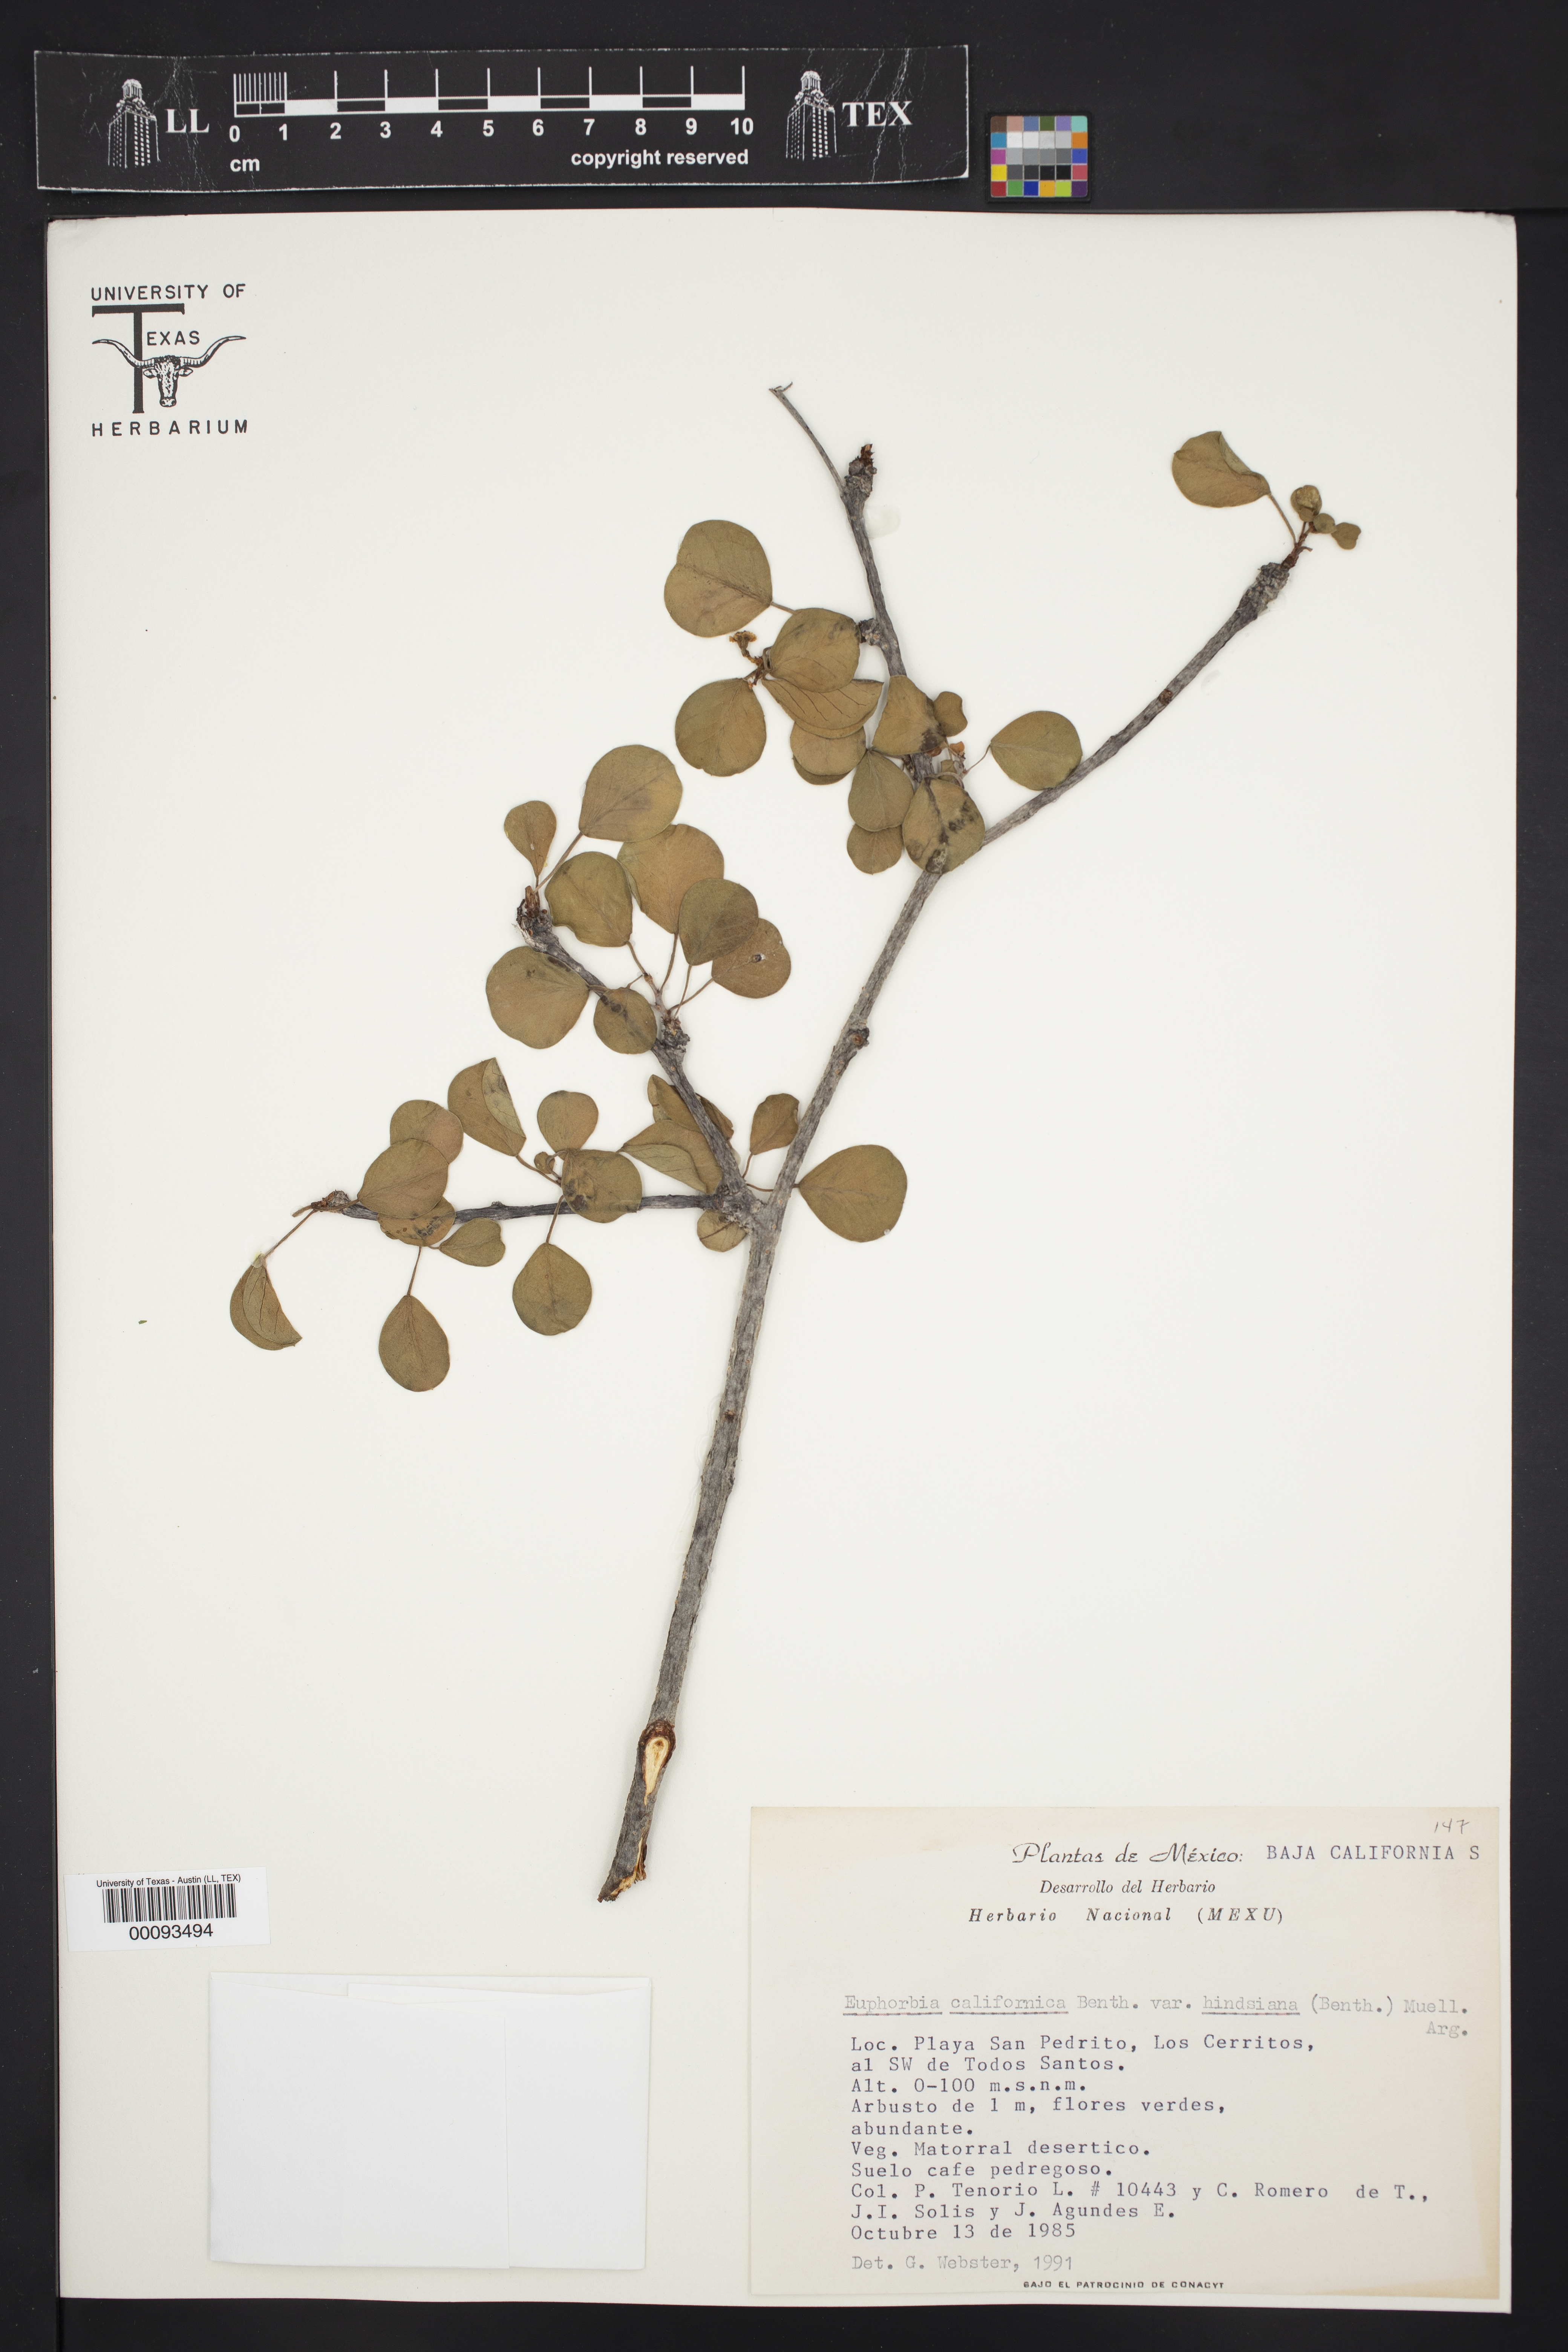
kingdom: Plantae
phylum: Tracheophyta
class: Magnoliopsida
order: Malpighiales
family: Euphorbiaceae
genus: Euphorbia
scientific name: Euphorbia californica
